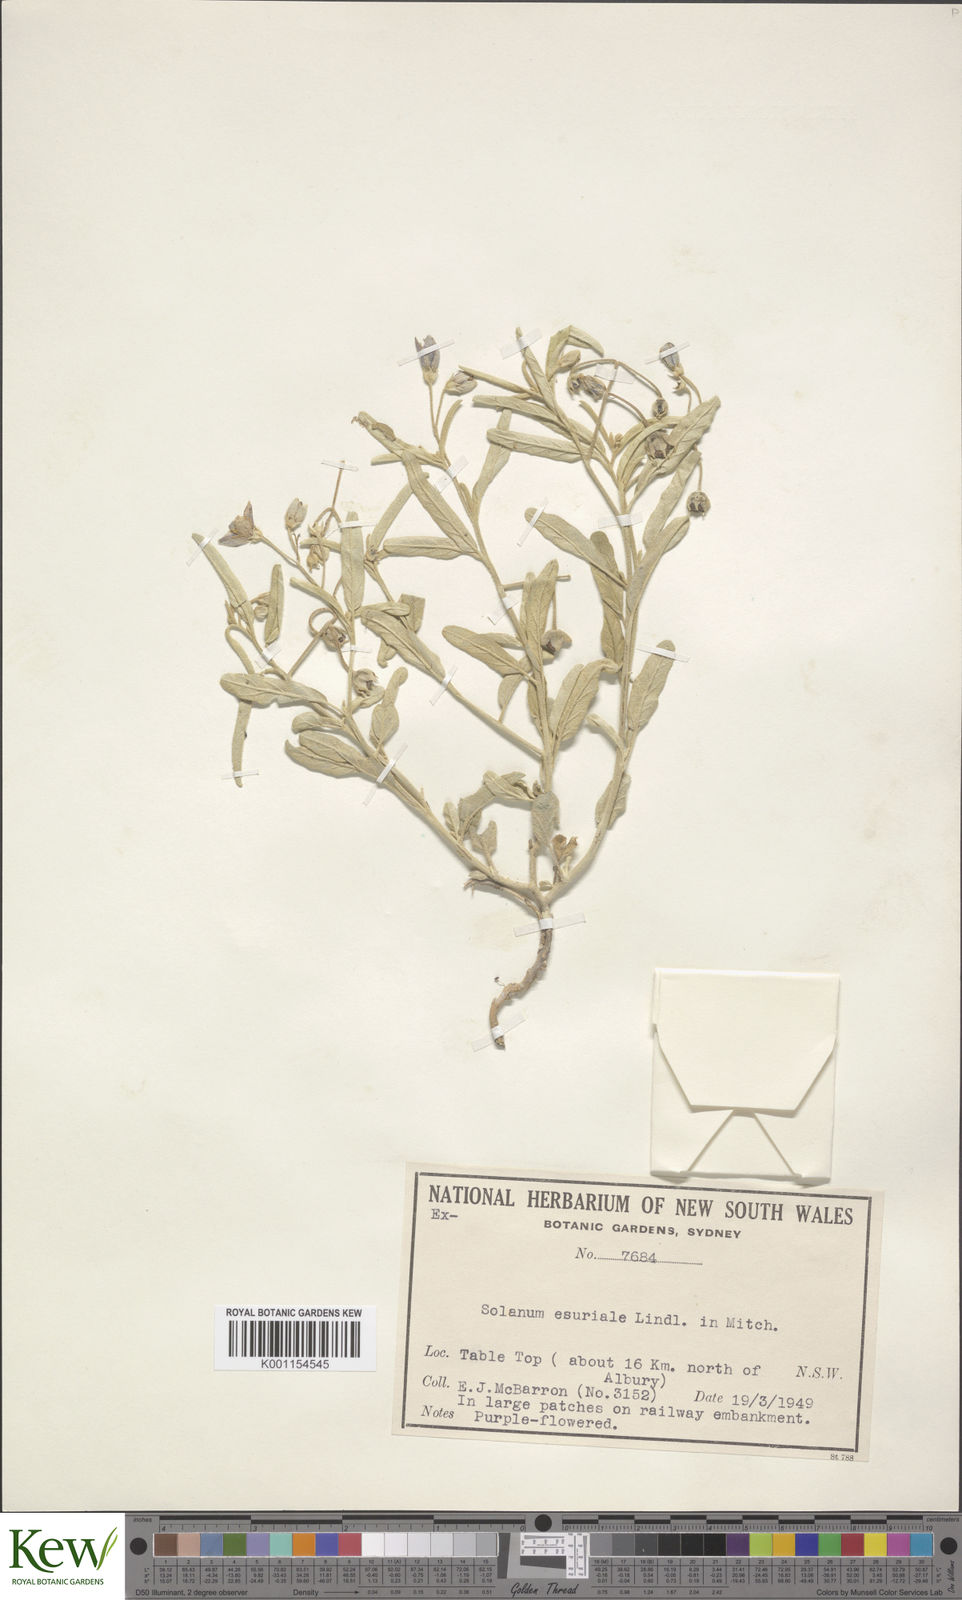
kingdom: Plantae
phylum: Tracheophyta
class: Magnoliopsida
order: Solanales
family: Solanaceae
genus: Solanum
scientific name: Solanum esuriale
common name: Wild tomato
